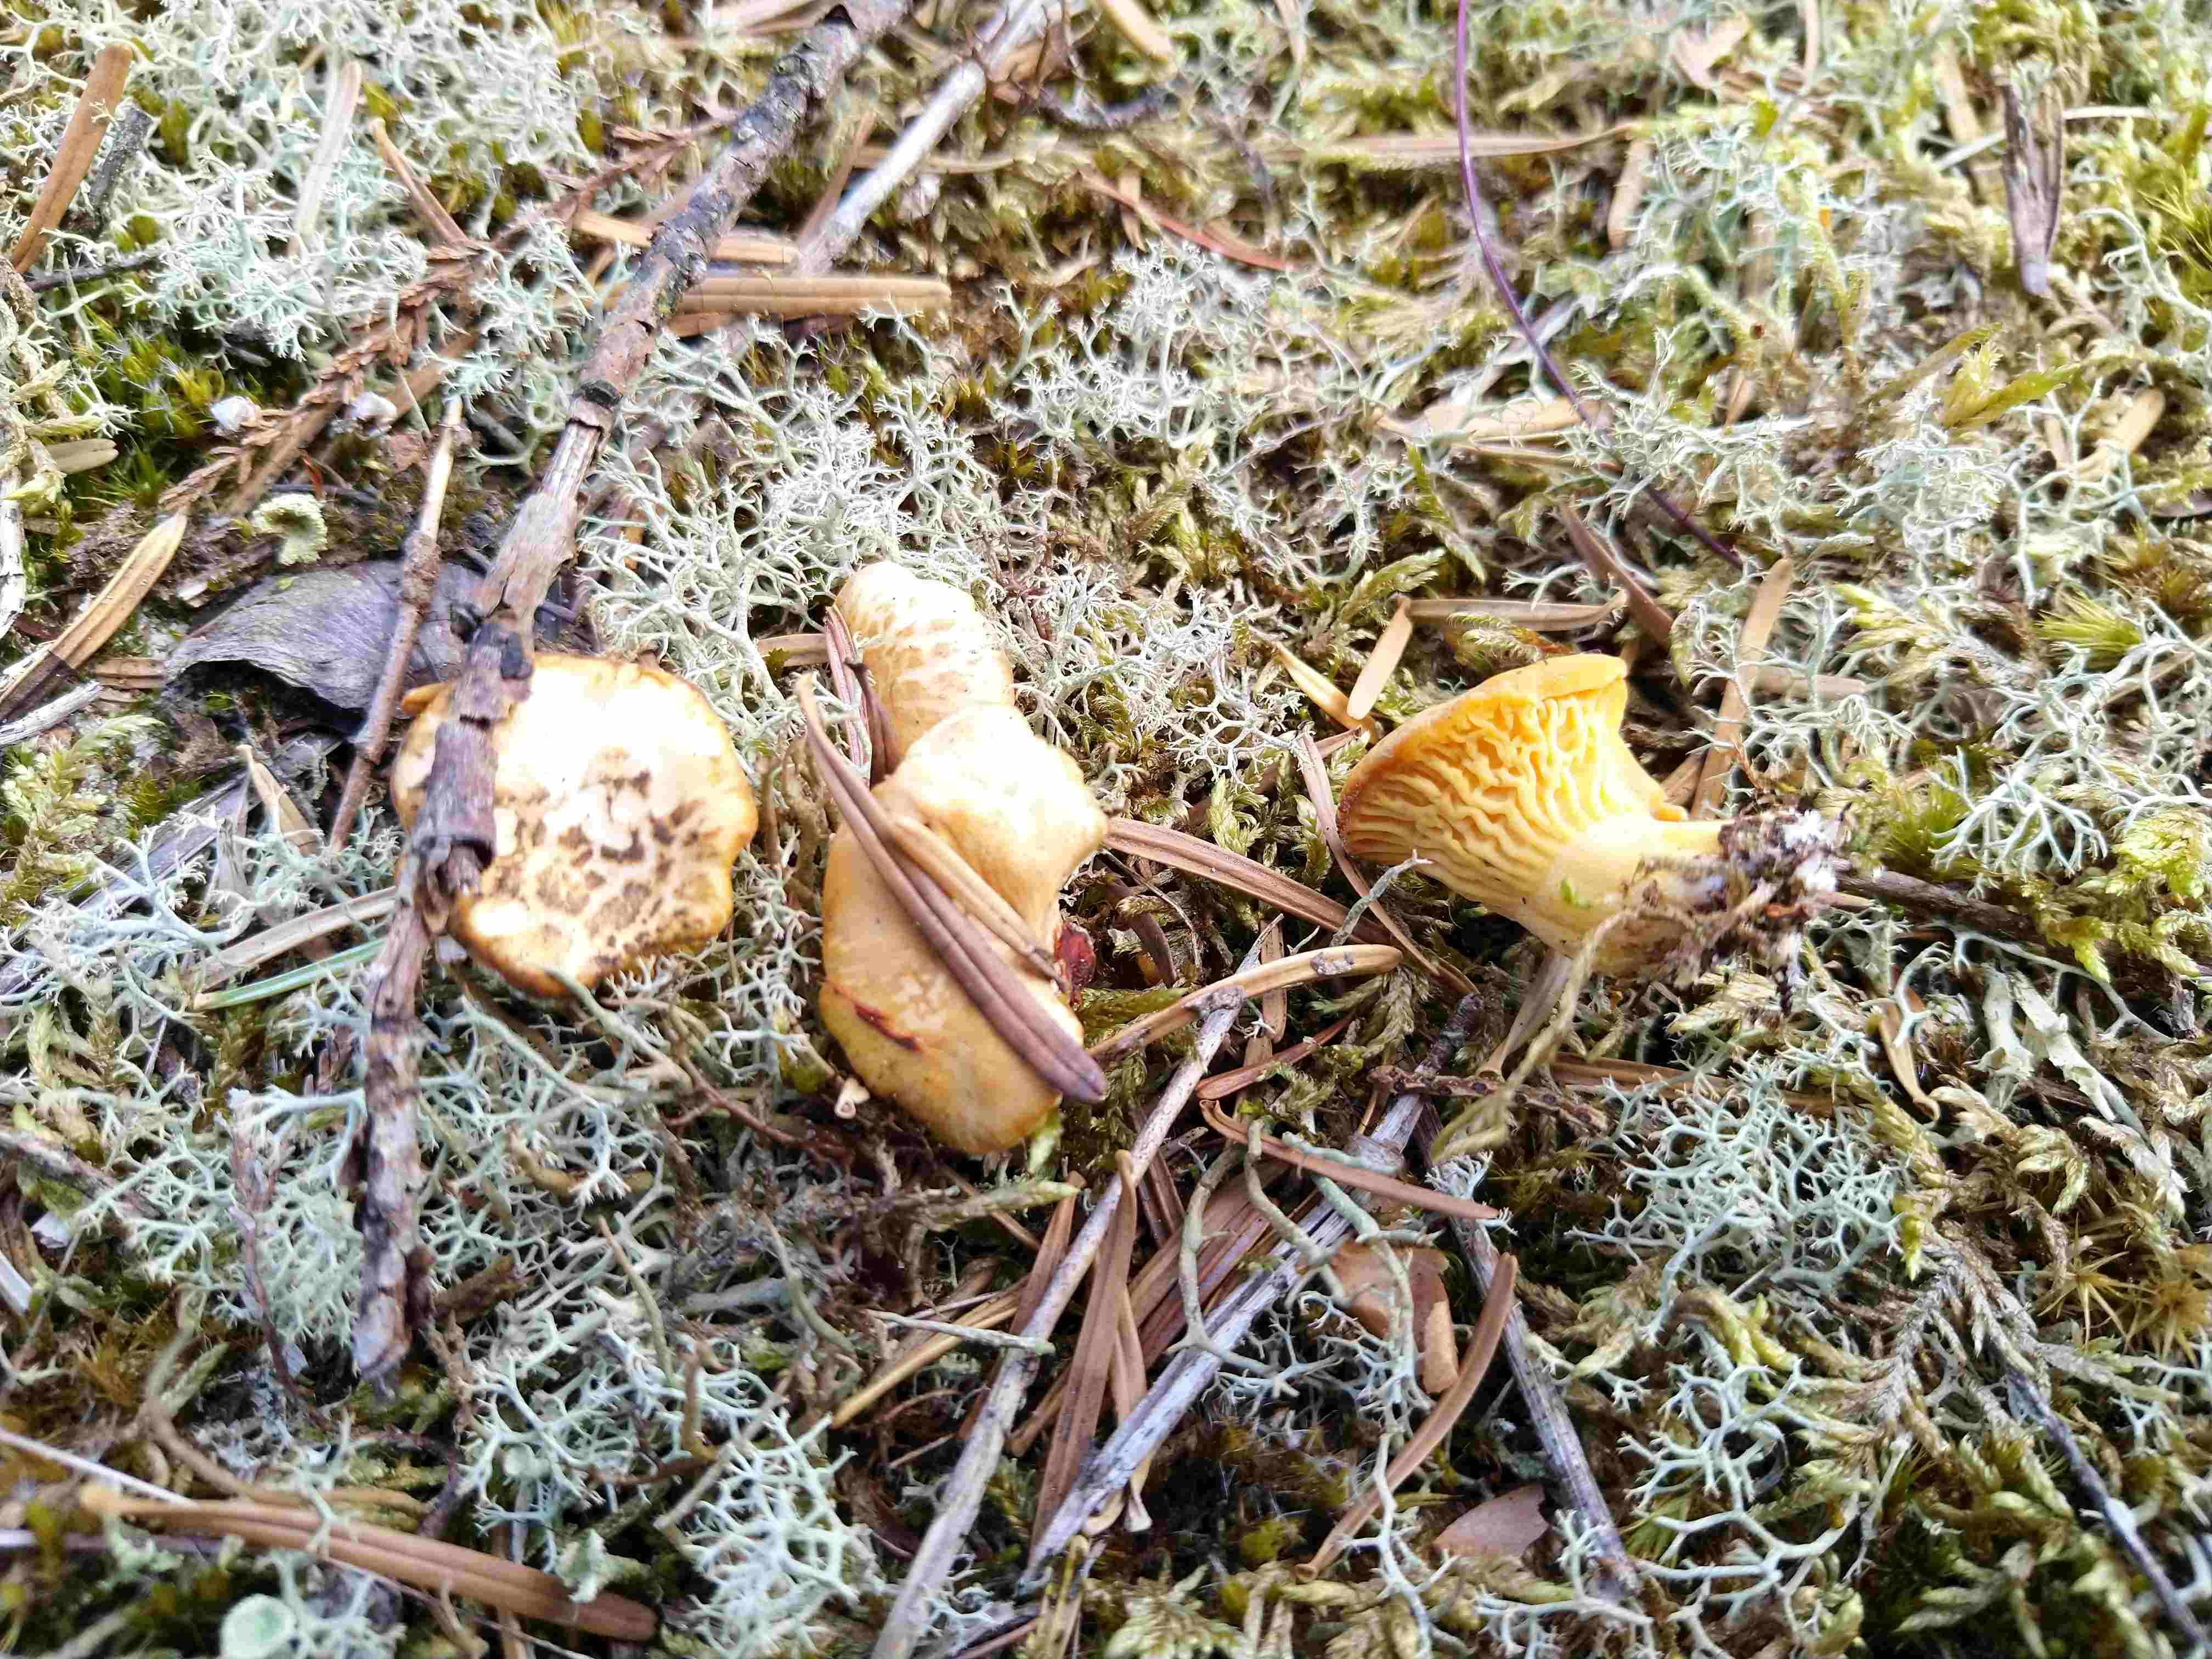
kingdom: Fungi
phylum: Basidiomycota
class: Agaricomycetes
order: Cantharellales
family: Hydnaceae
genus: Cantharellus
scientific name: Cantharellus cibarius
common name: almindelig kantarel
